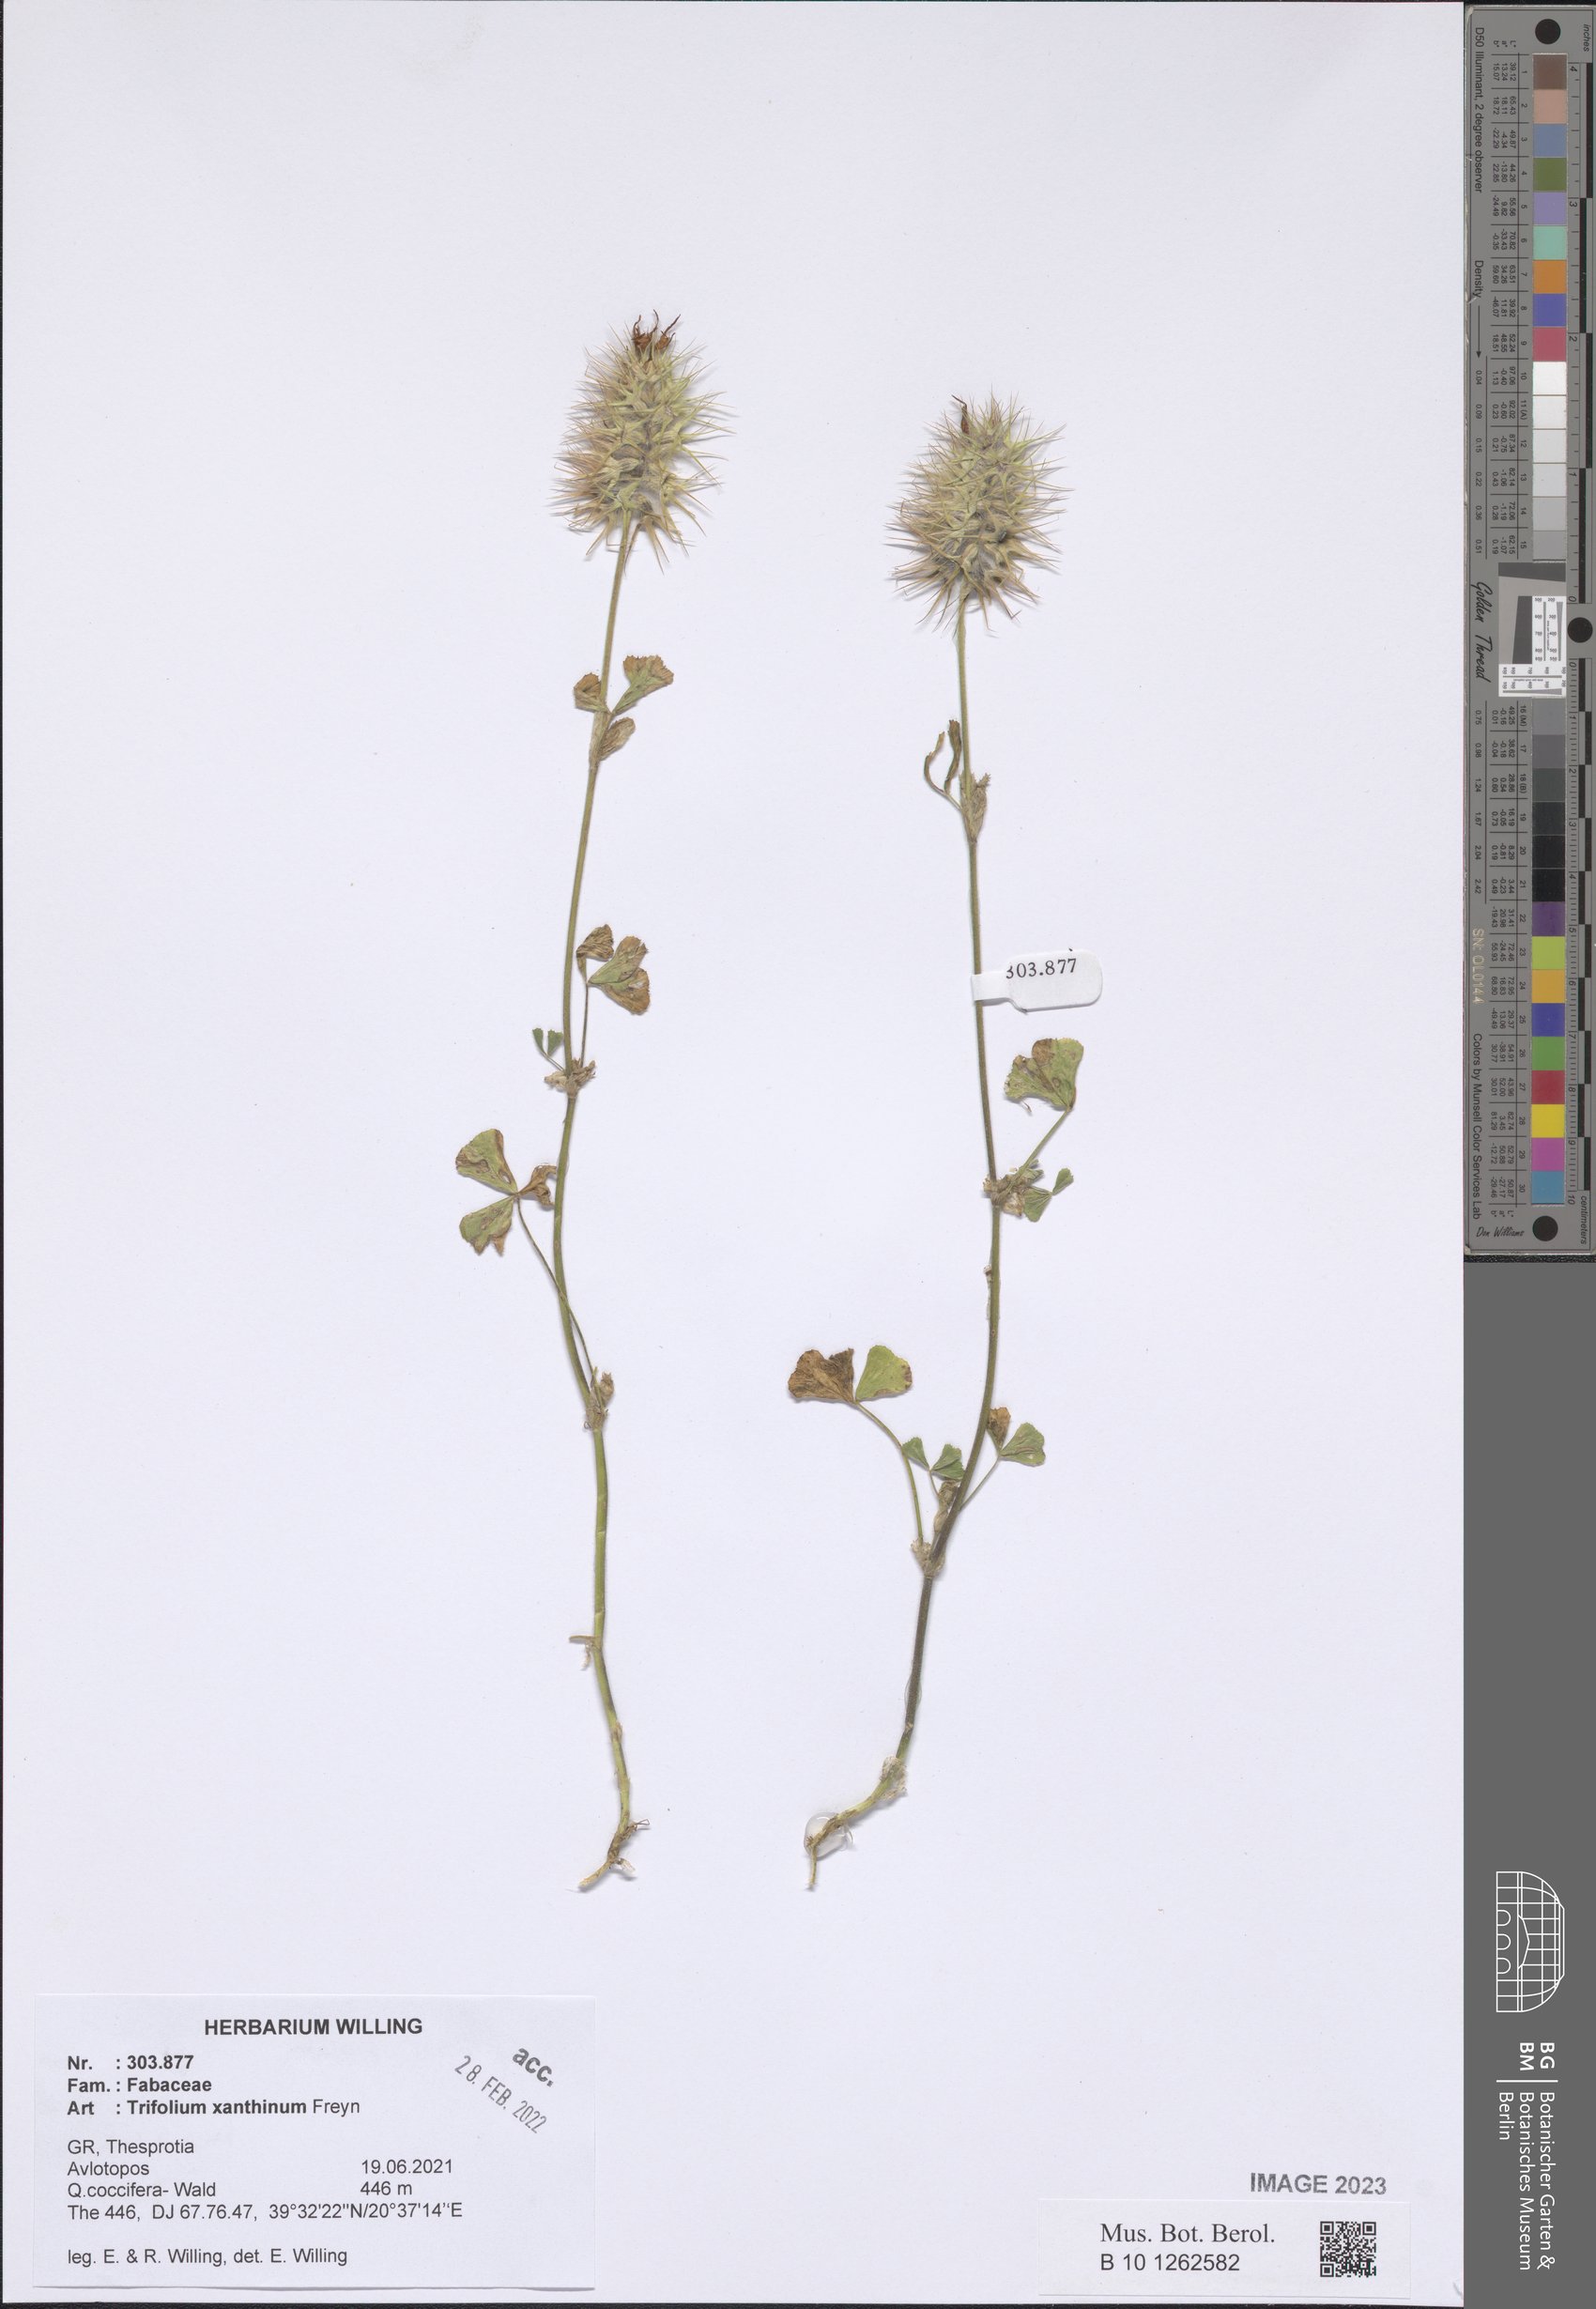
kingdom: Plantae
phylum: Tracheophyta
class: Magnoliopsida
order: Fabales
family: Fabaceae
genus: Trifolium
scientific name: Trifolium xanthinum
